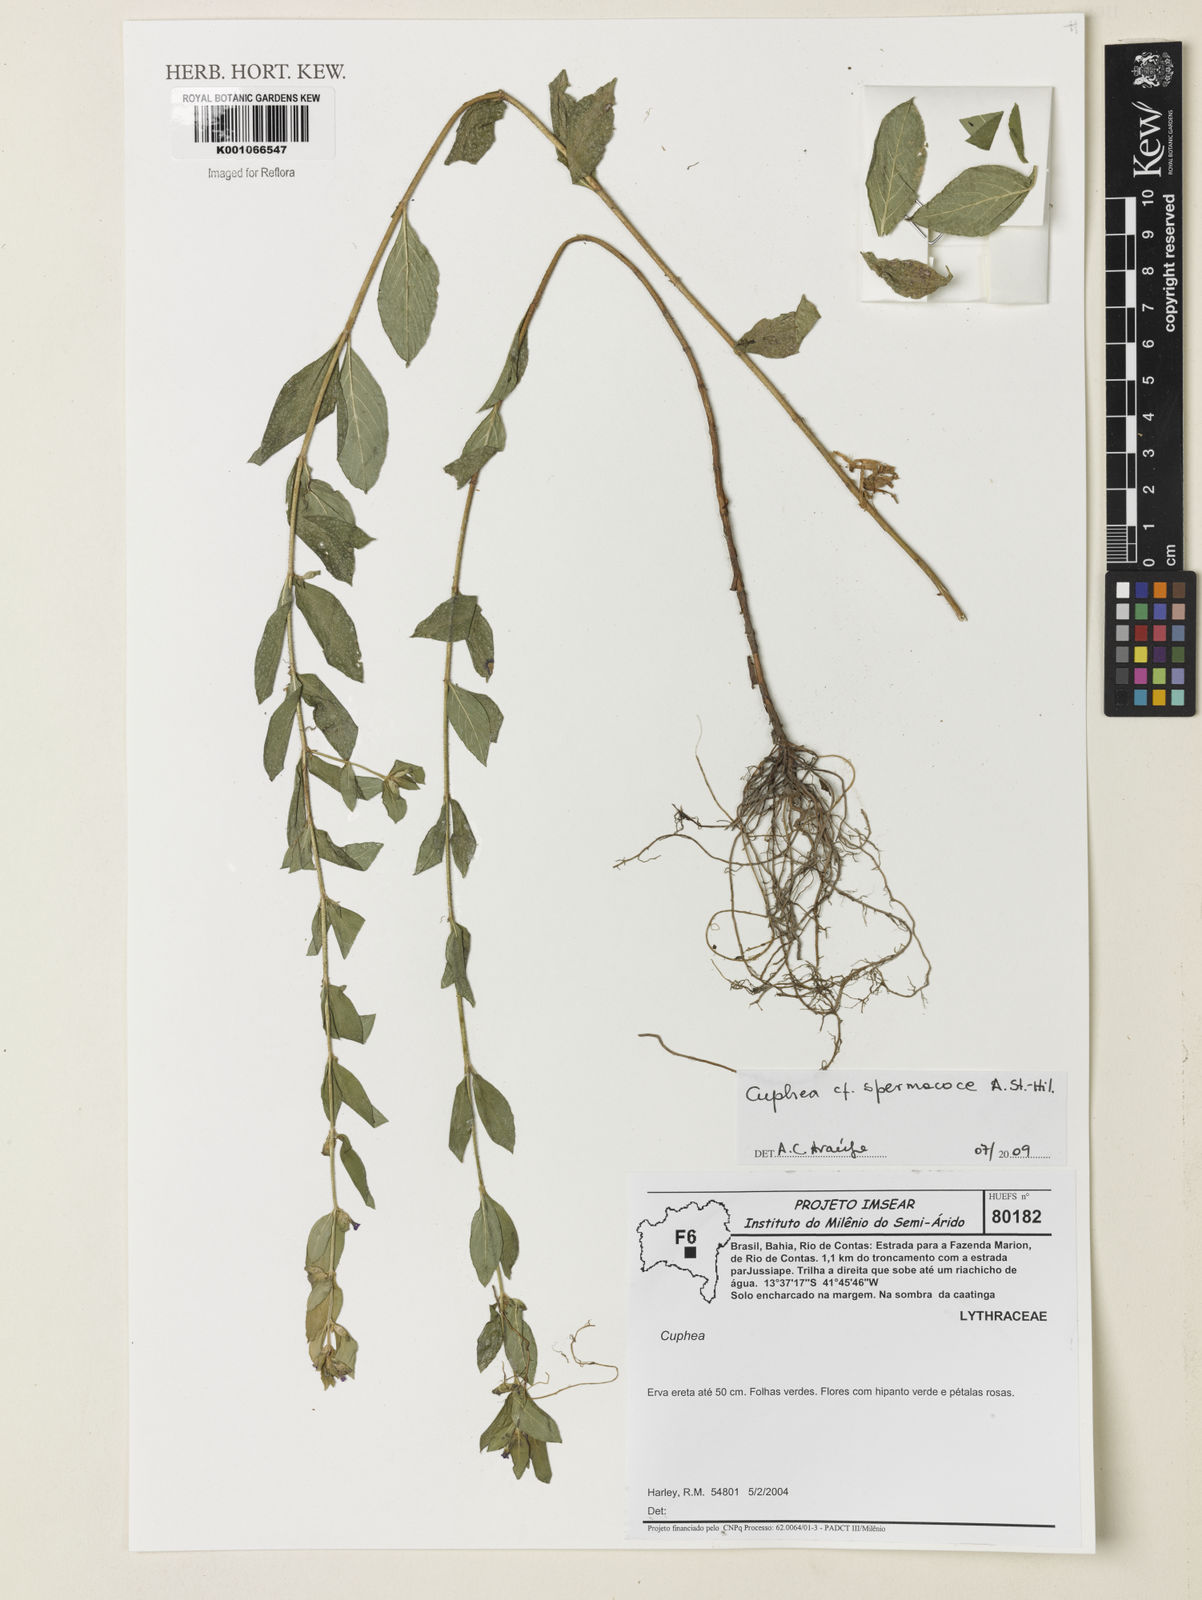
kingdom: Plantae
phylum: Tracheophyta
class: Magnoliopsida
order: Myrtales
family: Lythraceae
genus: Cuphea
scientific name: Cuphea spermacoce
